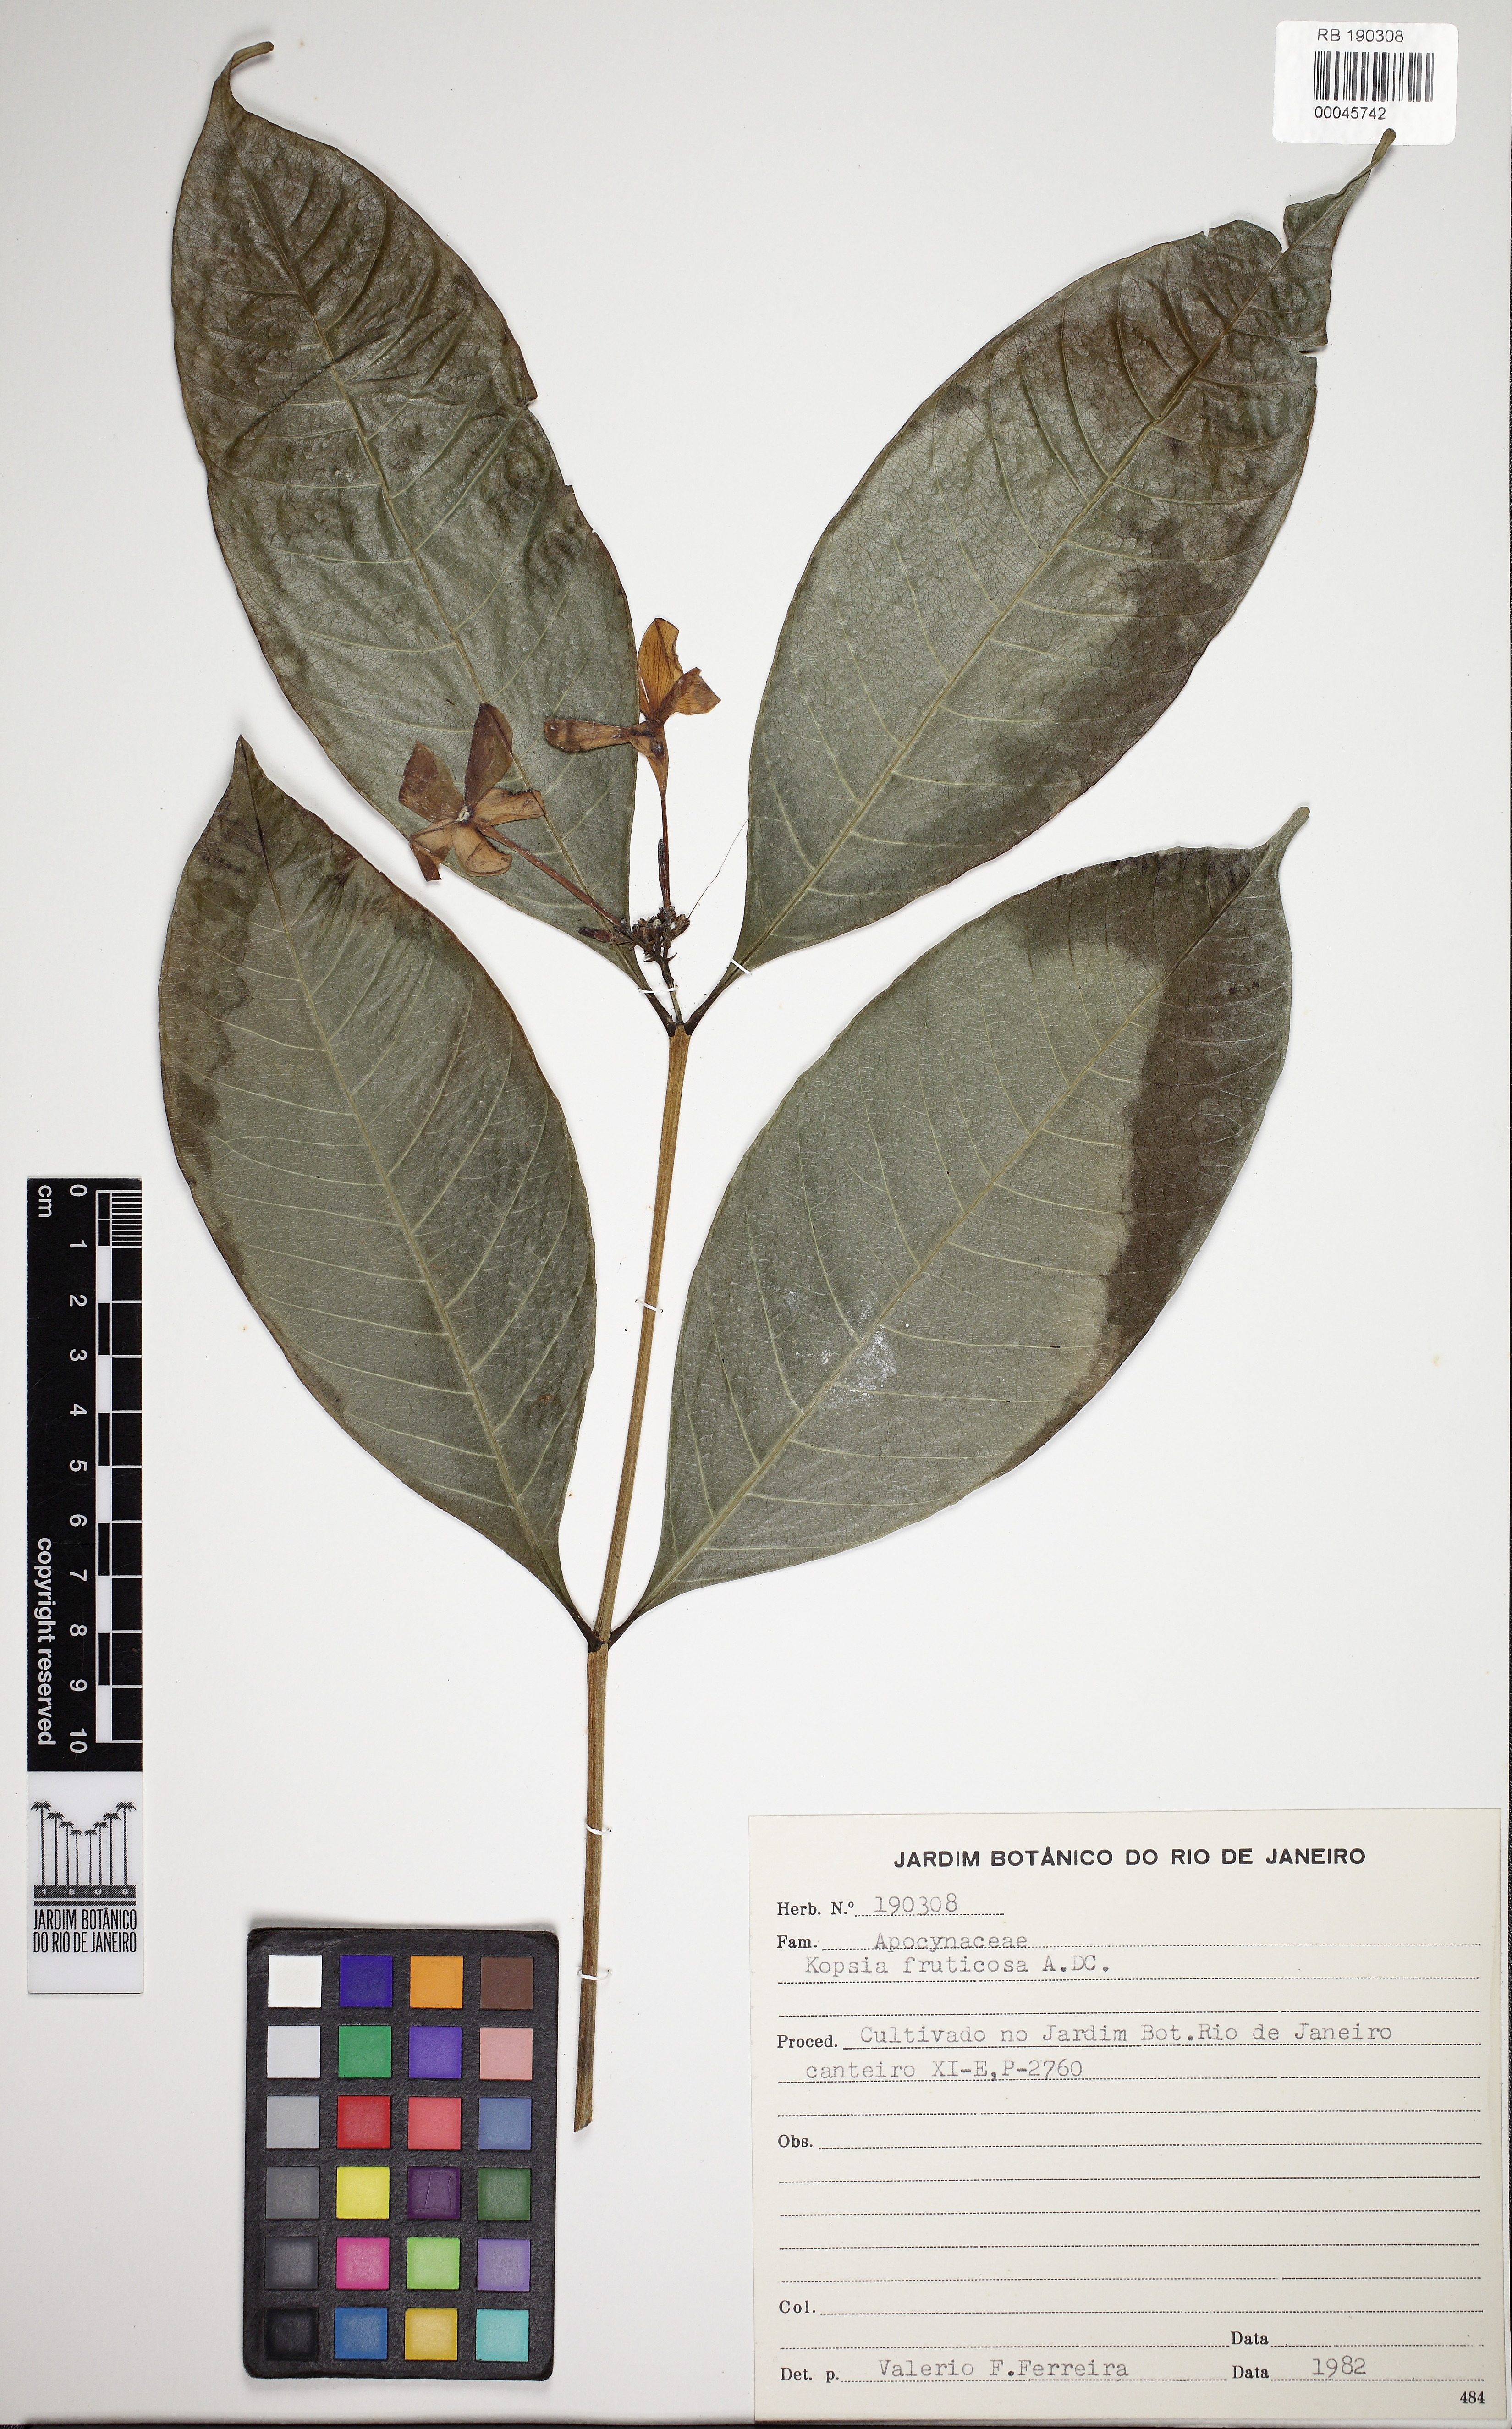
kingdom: Plantae
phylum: Tracheophyta
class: Magnoliopsida
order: Gentianales
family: Apocynaceae
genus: Kopsia
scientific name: Kopsia fruticosa
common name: Shrub-vinca
